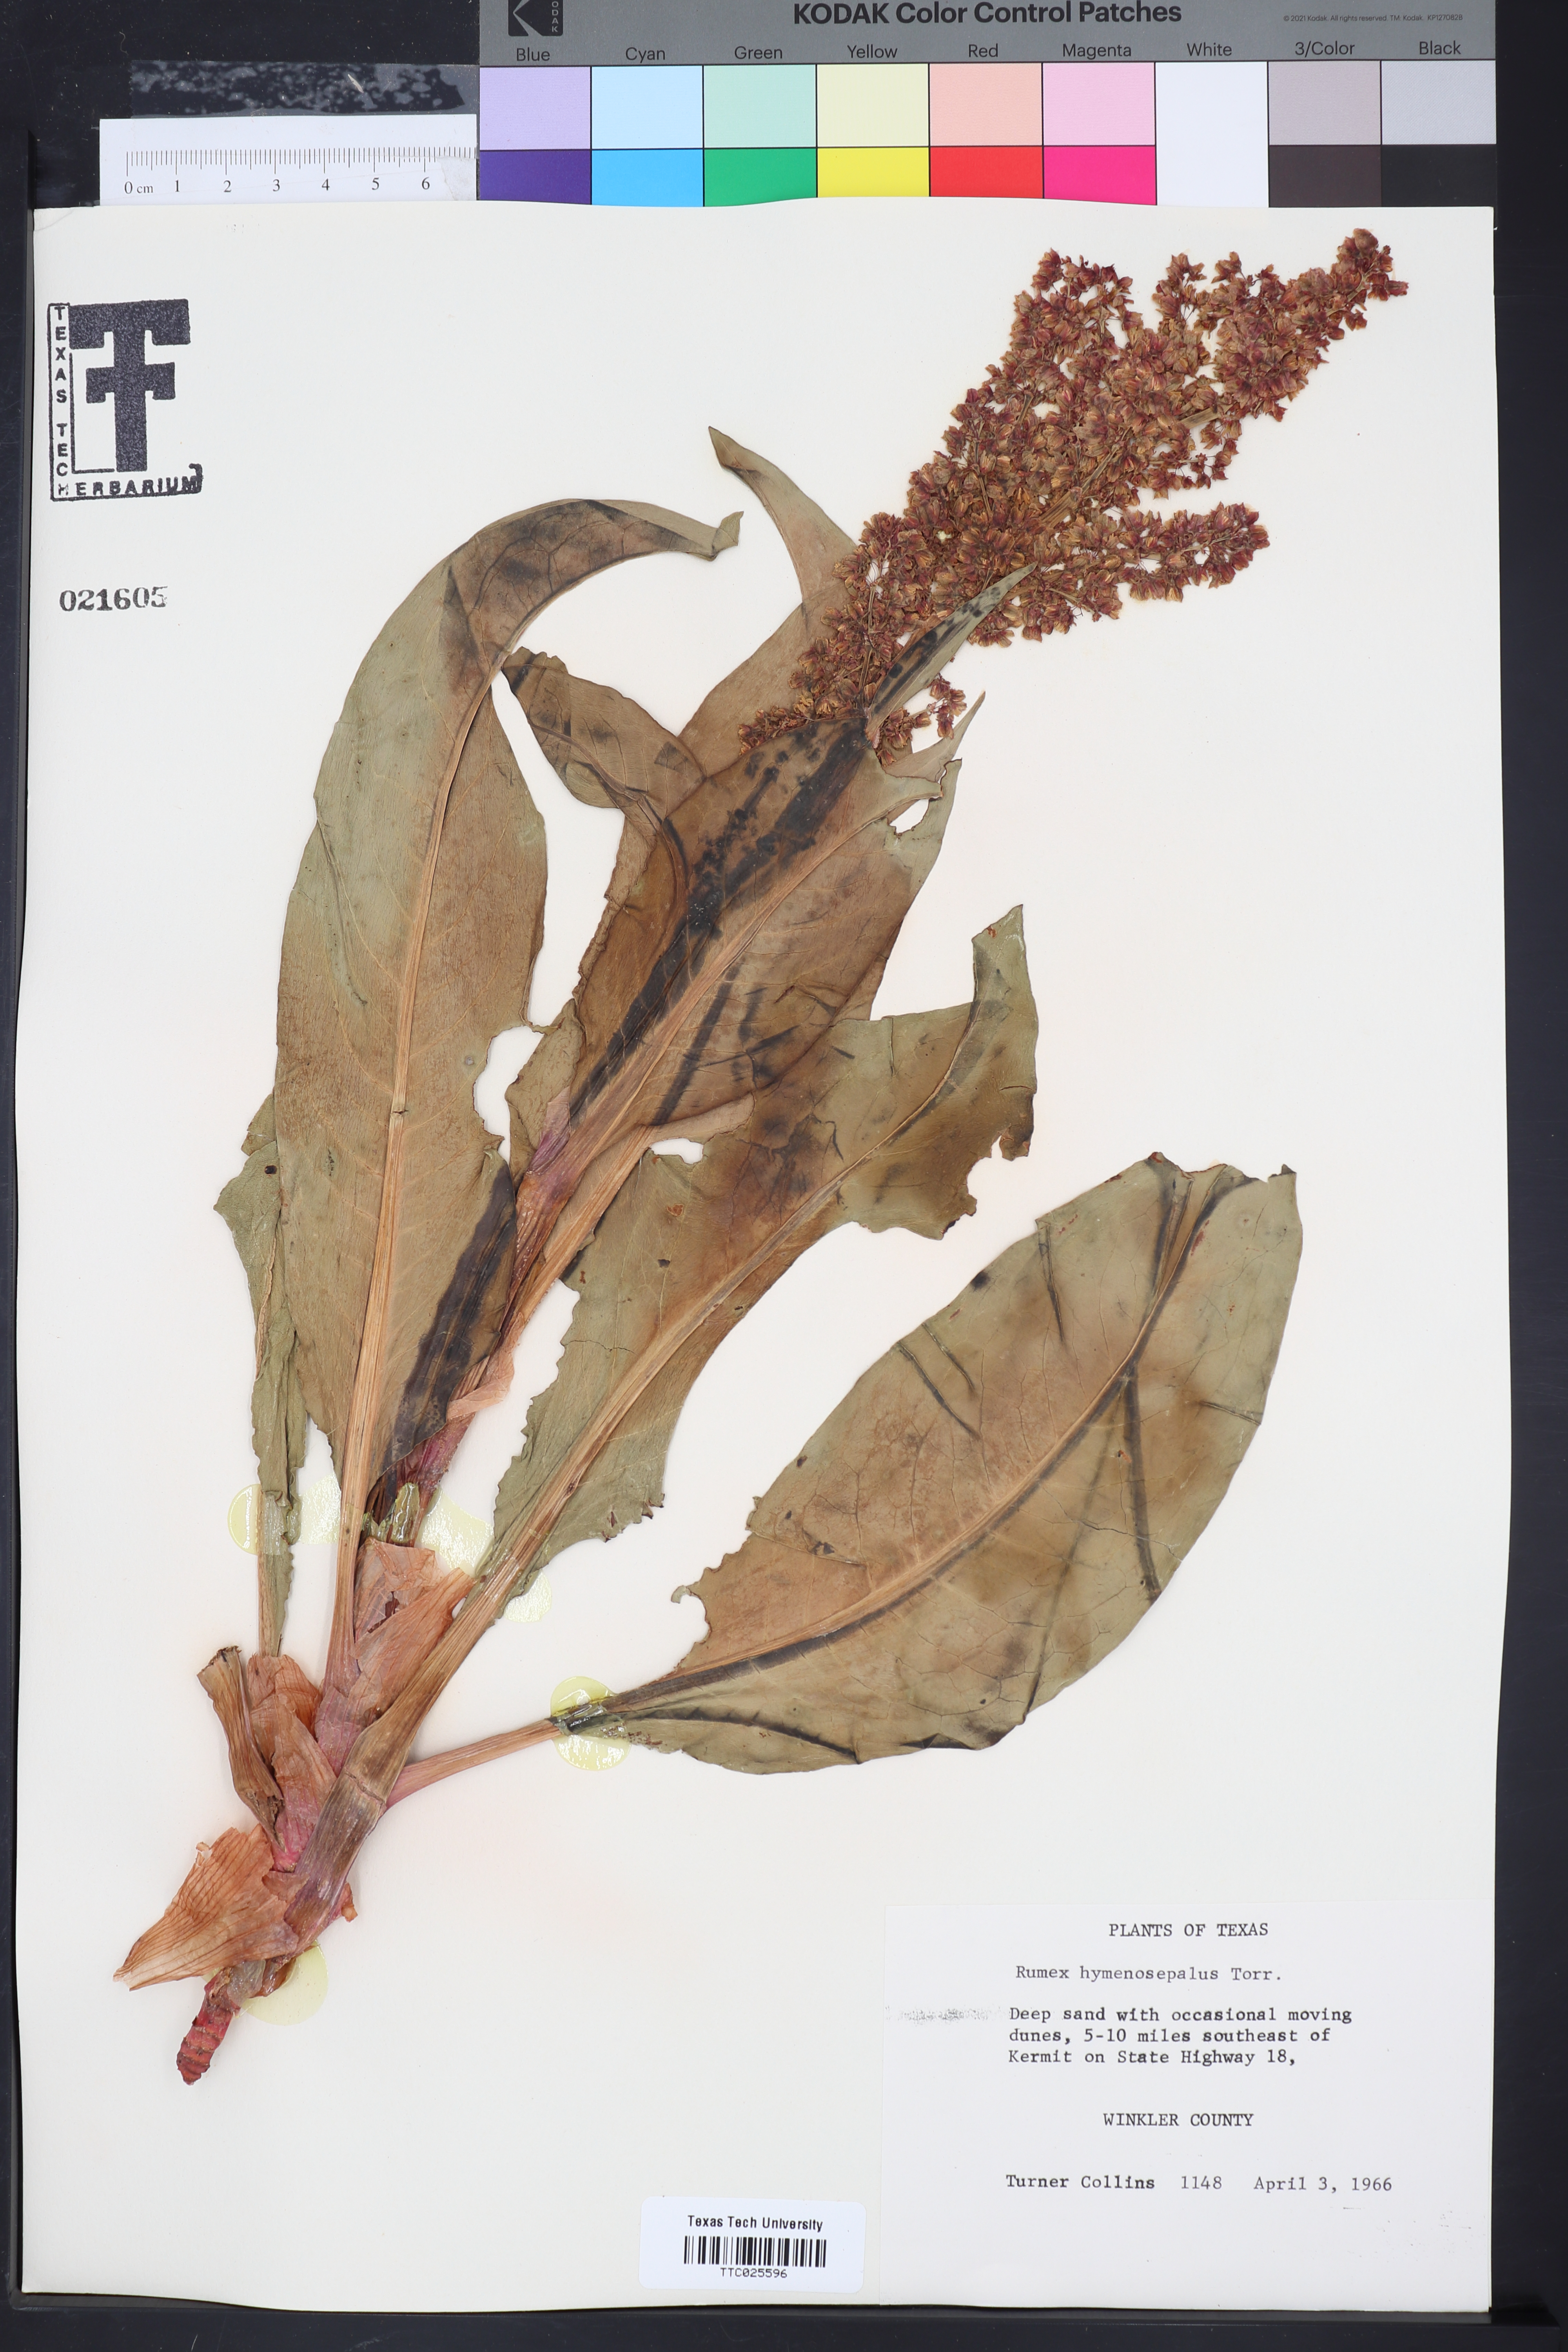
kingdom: Plantae
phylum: Tracheophyta
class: Magnoliopsida
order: Caryophyllales
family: Polygonaceae
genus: Rumex
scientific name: Rumex hymenosepalus
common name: Ganagra
